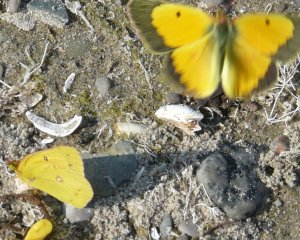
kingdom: Animalia
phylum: Arthropoda
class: Insecta
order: Lepidoptera
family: Pieridae
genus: Colias
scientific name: Colias philodice
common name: Clouded Sulphur
